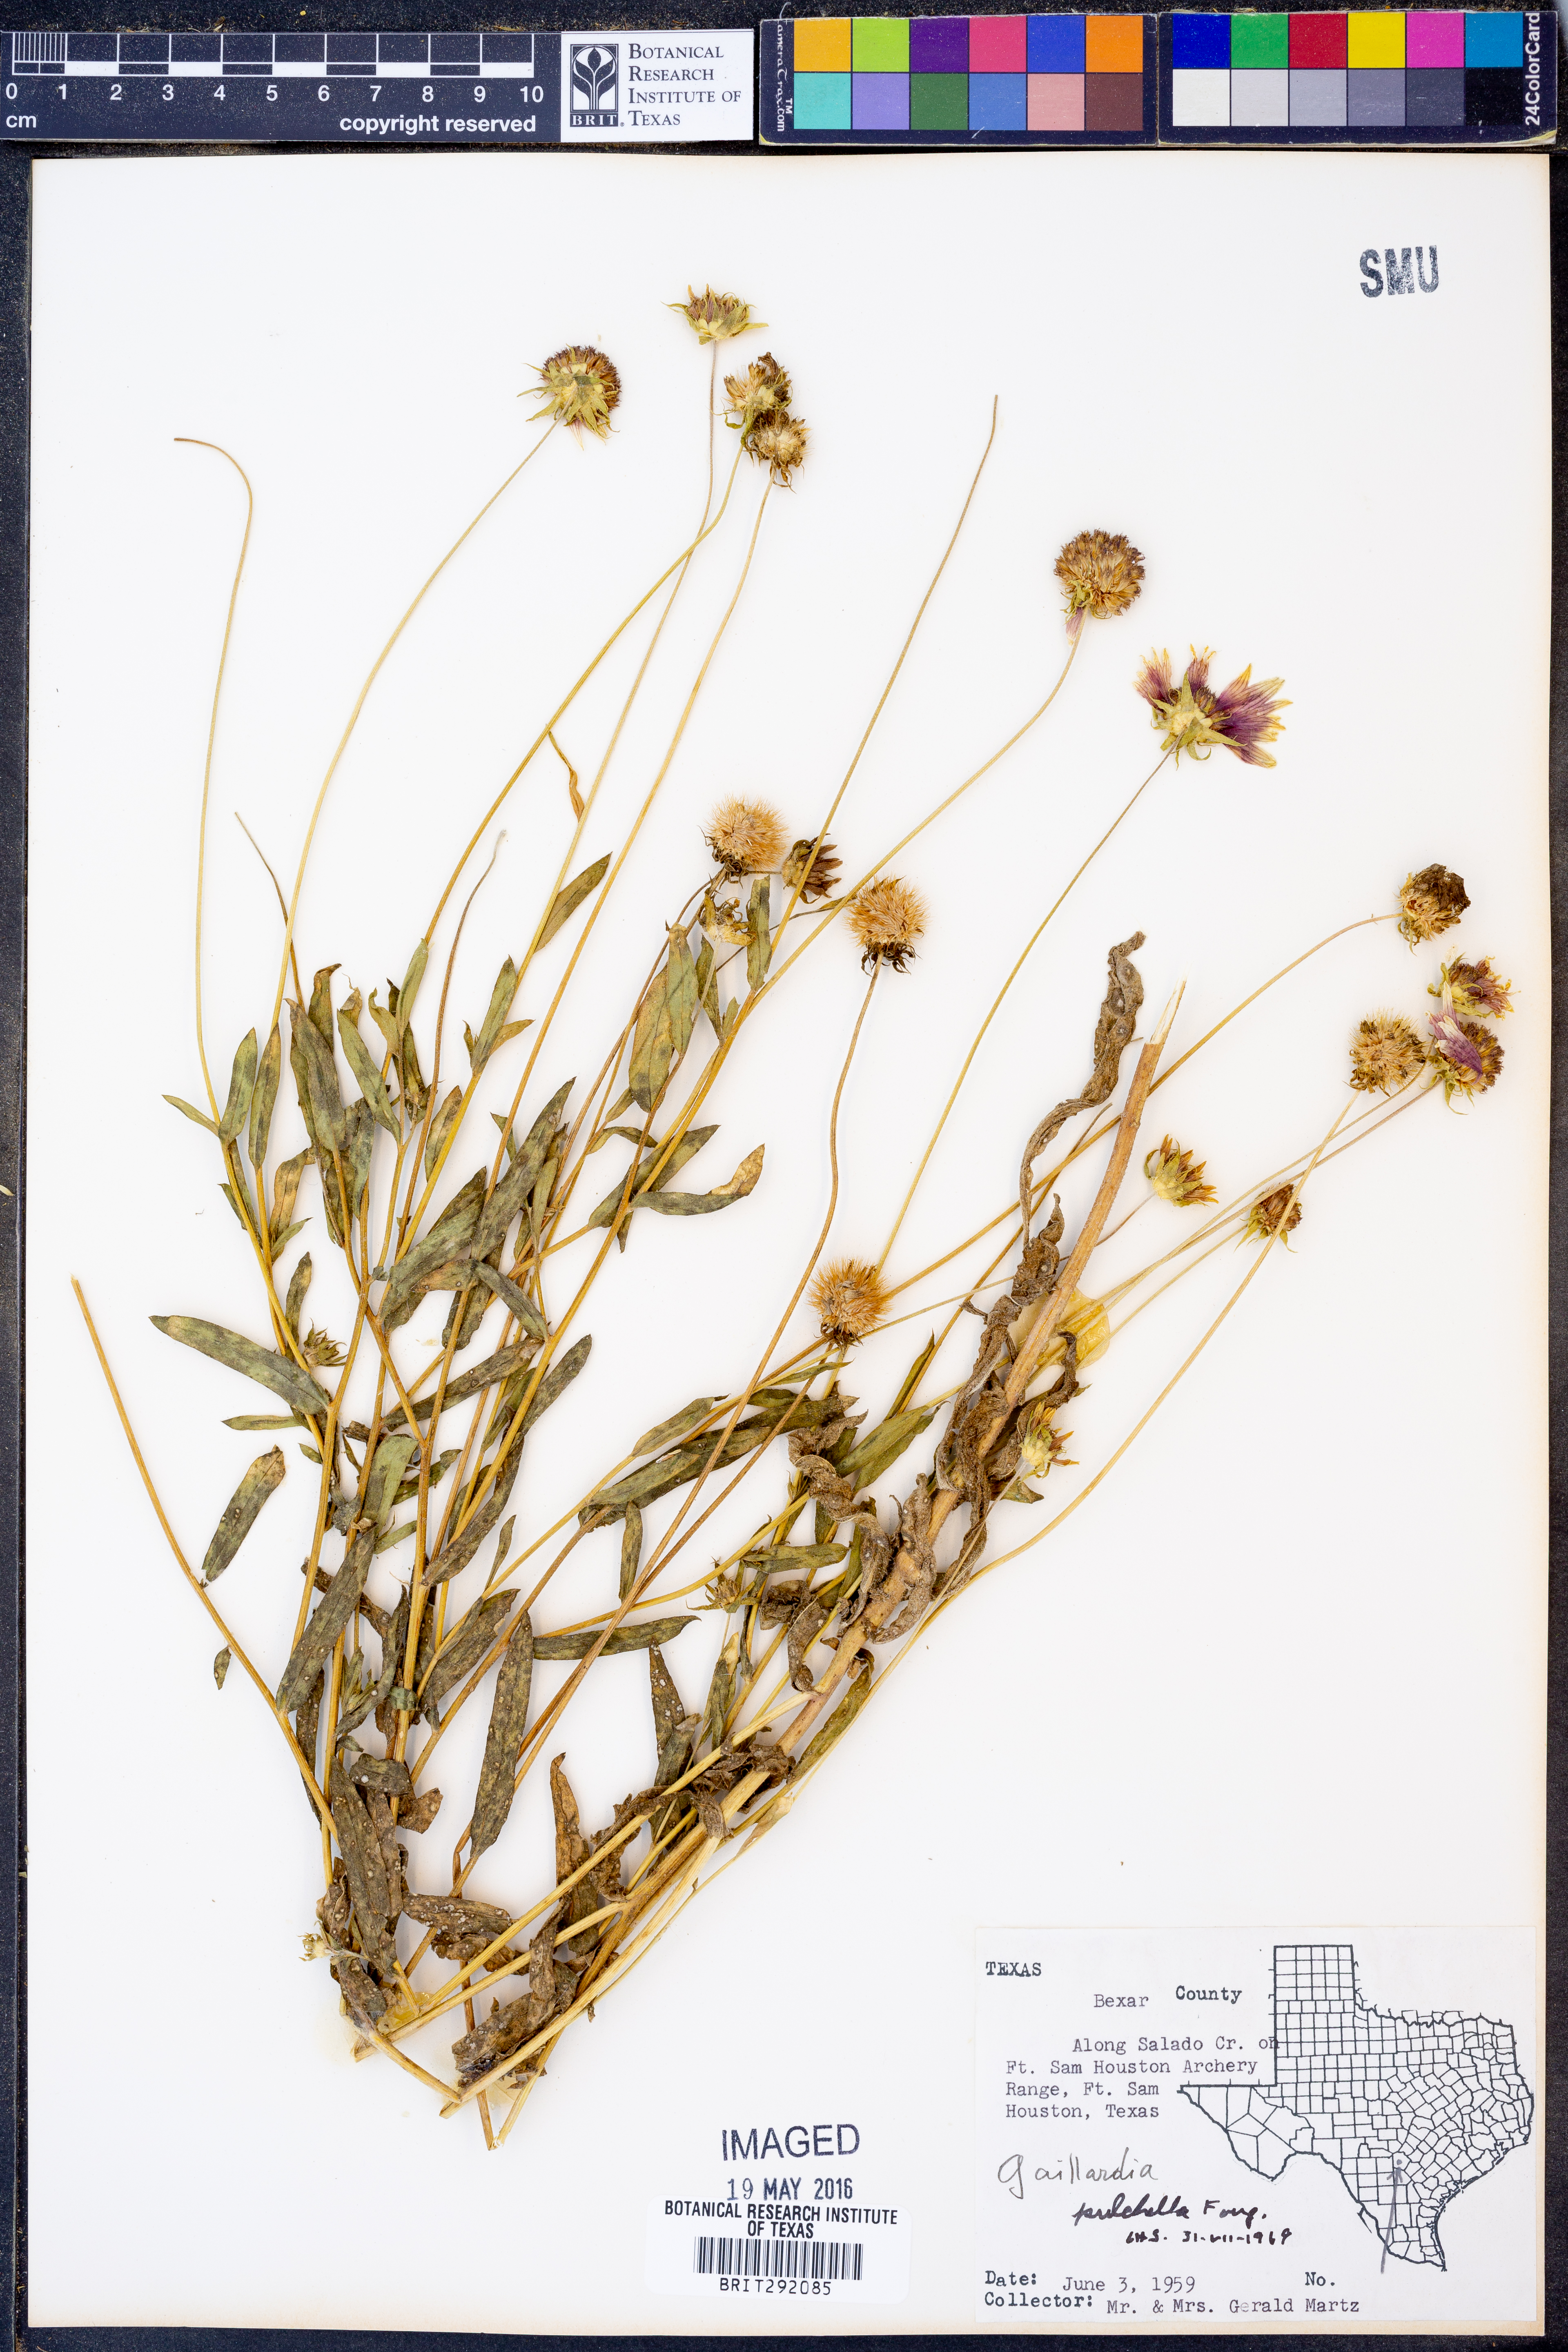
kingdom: Plantae
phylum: Tracheophyta
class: Magnoliopsida
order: Asterales
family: Asteraceae
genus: Gaillardia
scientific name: Gaillardia pulchella
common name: Firewheel
